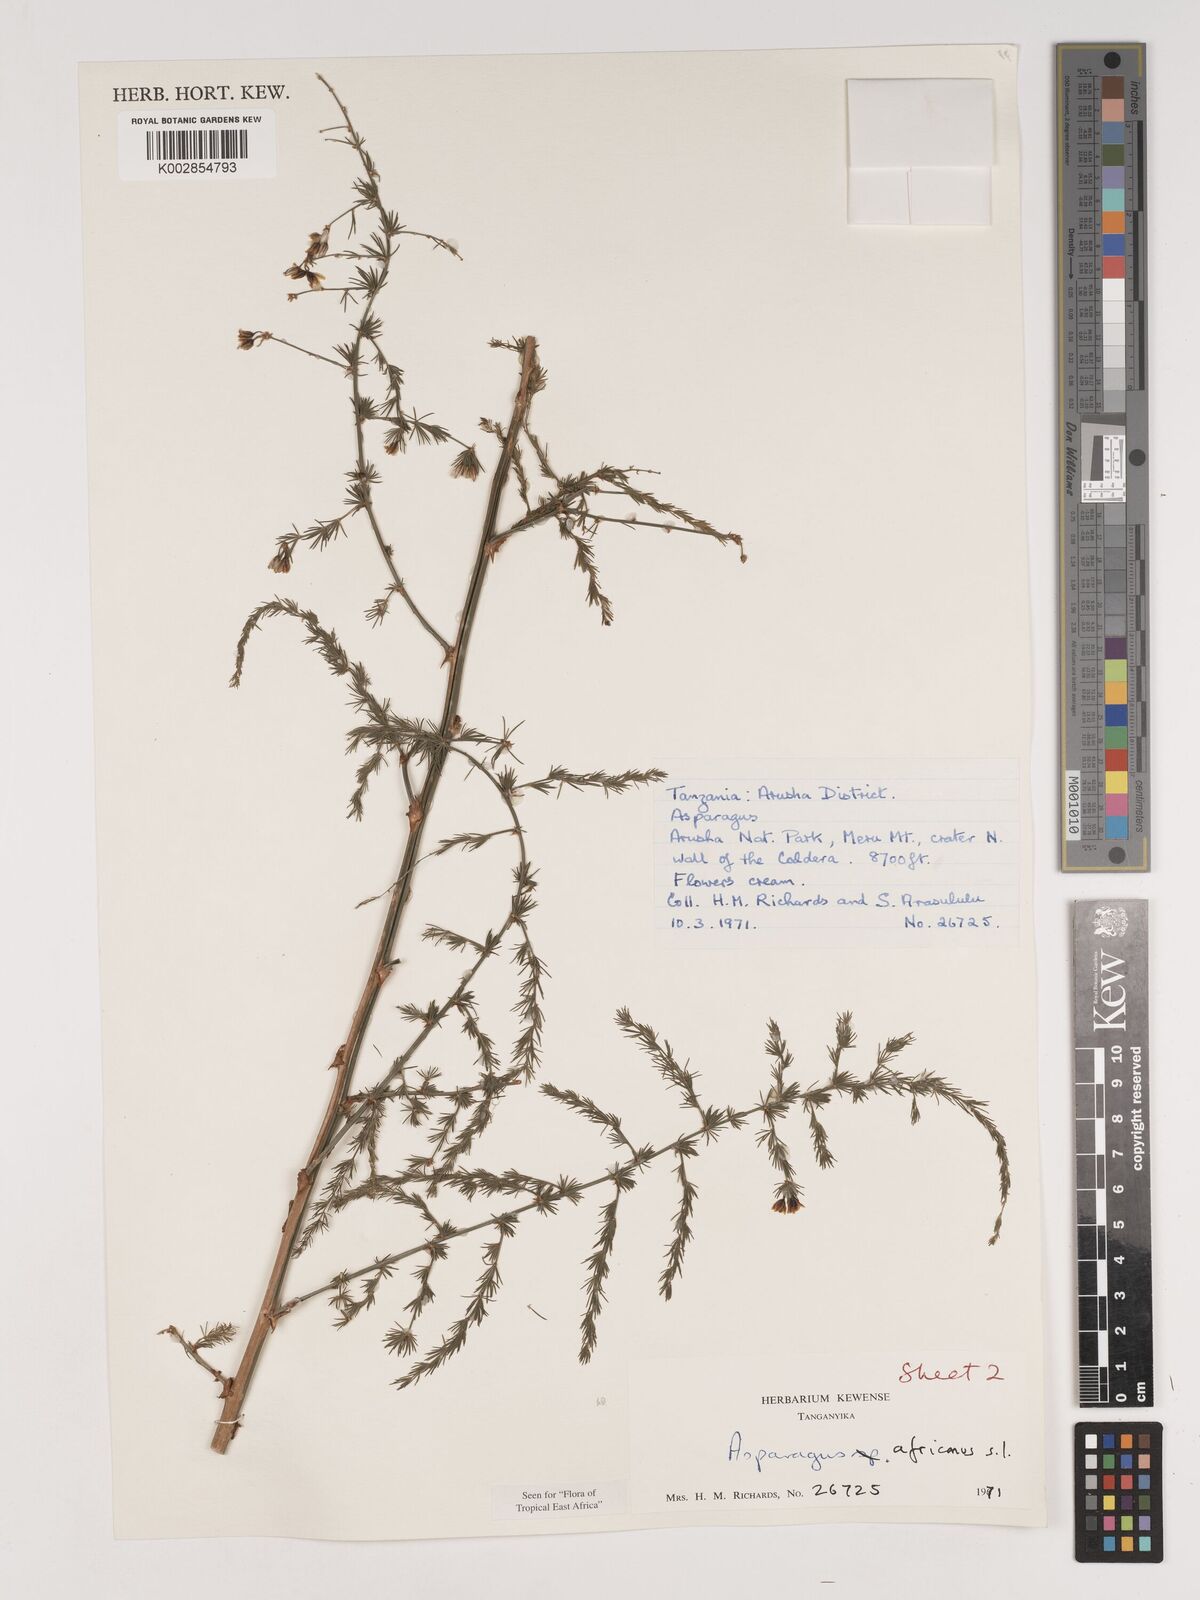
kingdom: Plantae
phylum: Tracheophyta
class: Liliopsida
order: Asparagales
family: Asparagaceae
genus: Asparagus
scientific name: Asparagus africanus
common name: Asparagus-fern
